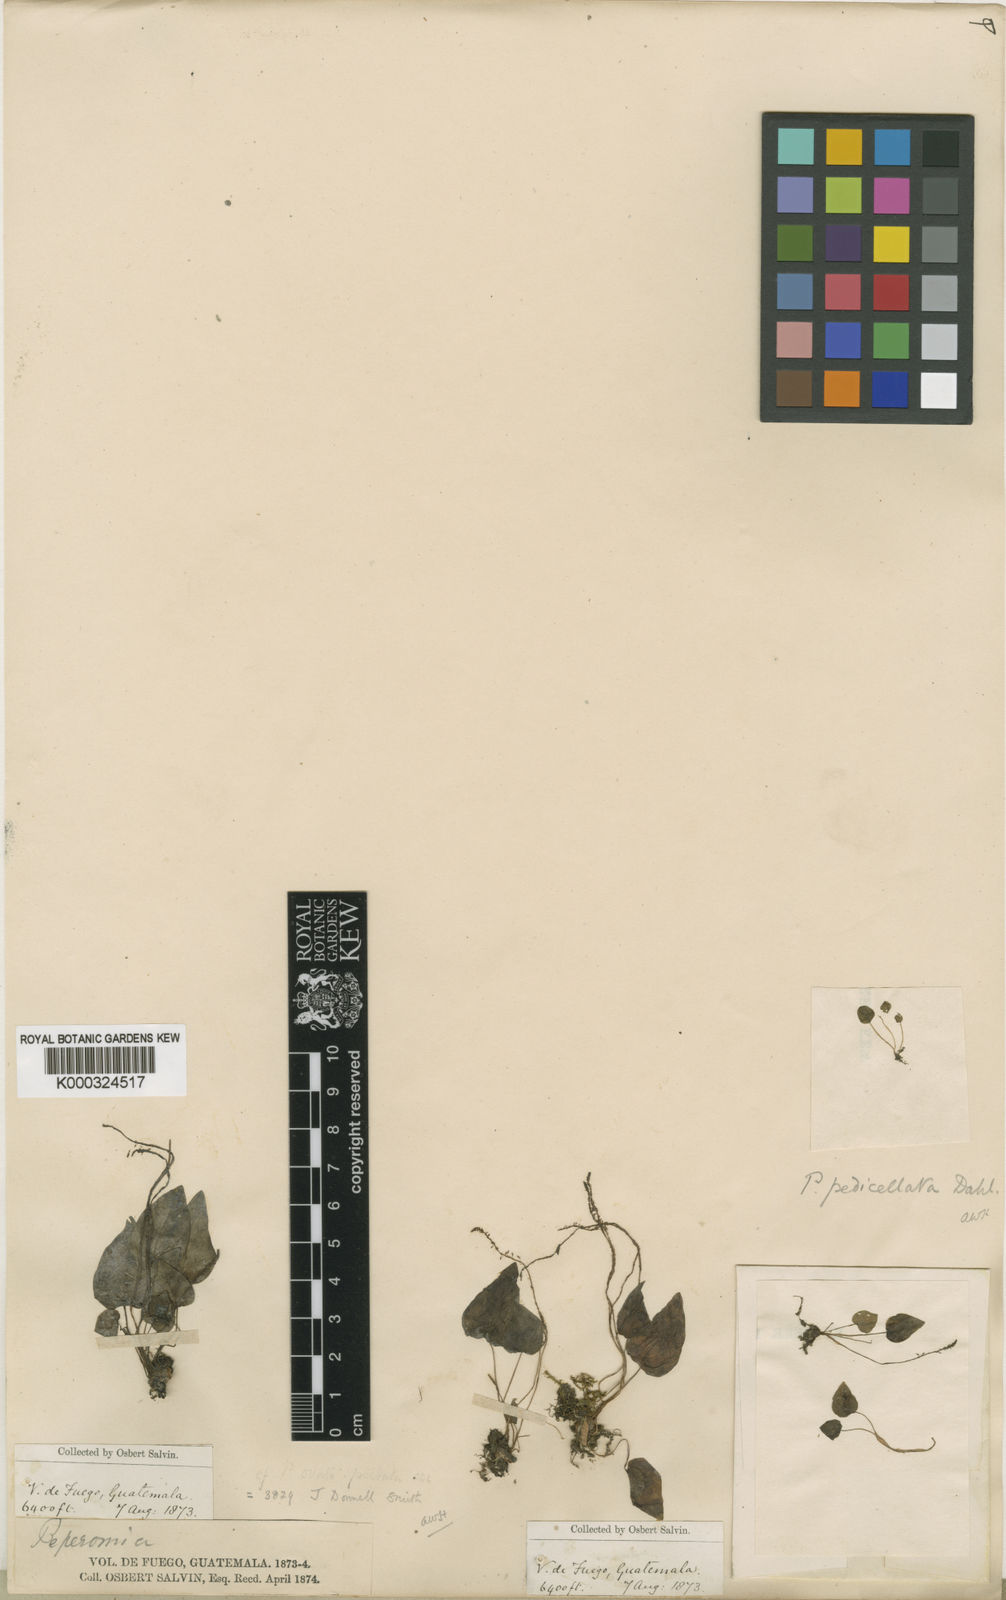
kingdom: Plantae
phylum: Tracheophyta
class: Magnoliopsida
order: Piperales
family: Piperaceae
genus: Peperomia
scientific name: Peperomia pedicellata
